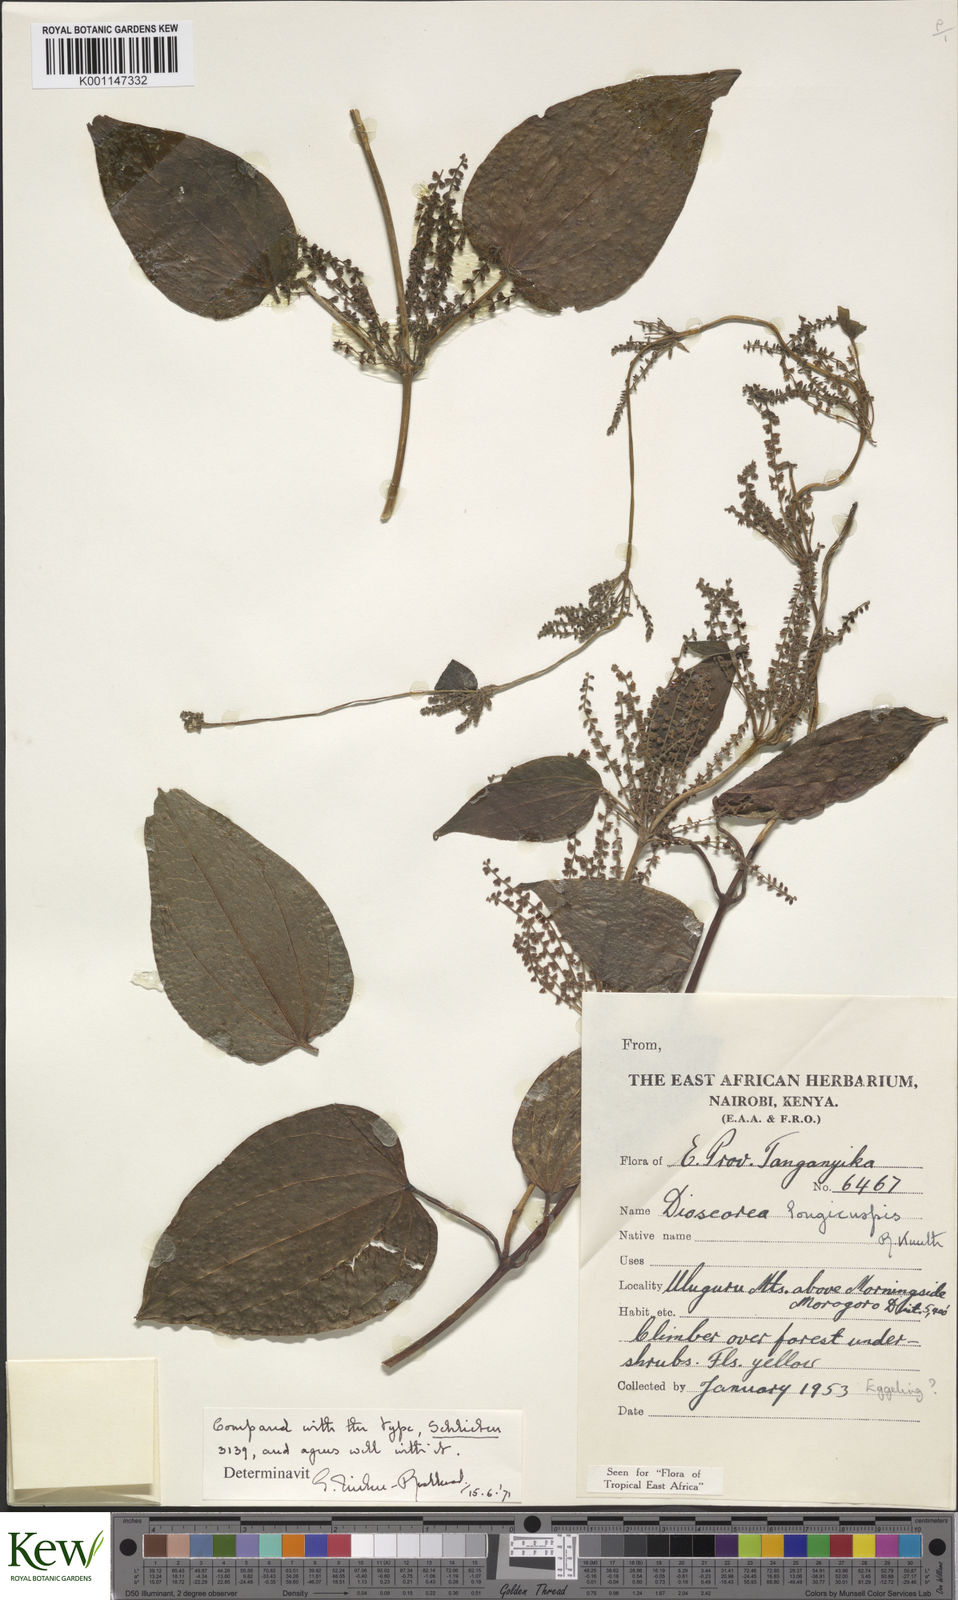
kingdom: Plantae
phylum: Tracheophyta
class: Liliopsida
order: Dioscoreales
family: Dioscoreaceae
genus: Dioscorea
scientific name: Dioscorea longicuspis
